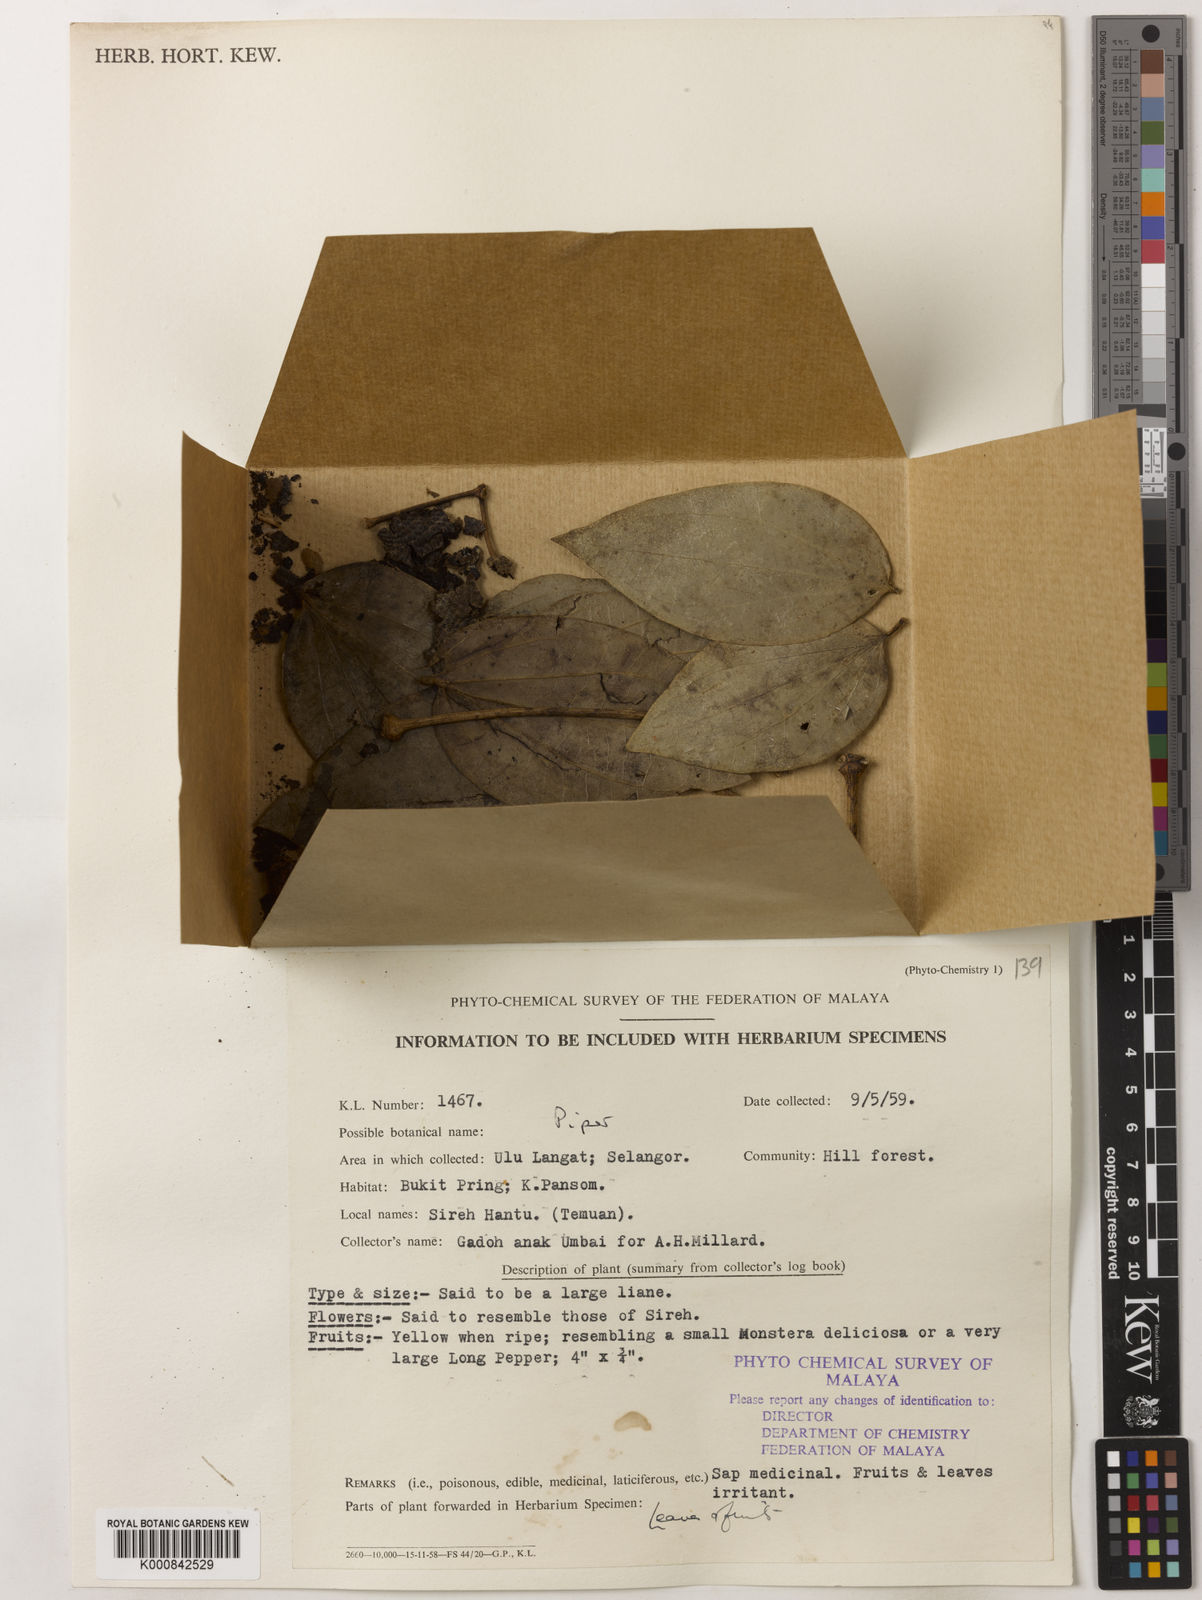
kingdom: Plantae
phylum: Tracheophyta
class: Magnoliopsida
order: Piperales
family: Piperaceae
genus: Piper
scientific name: Piper
